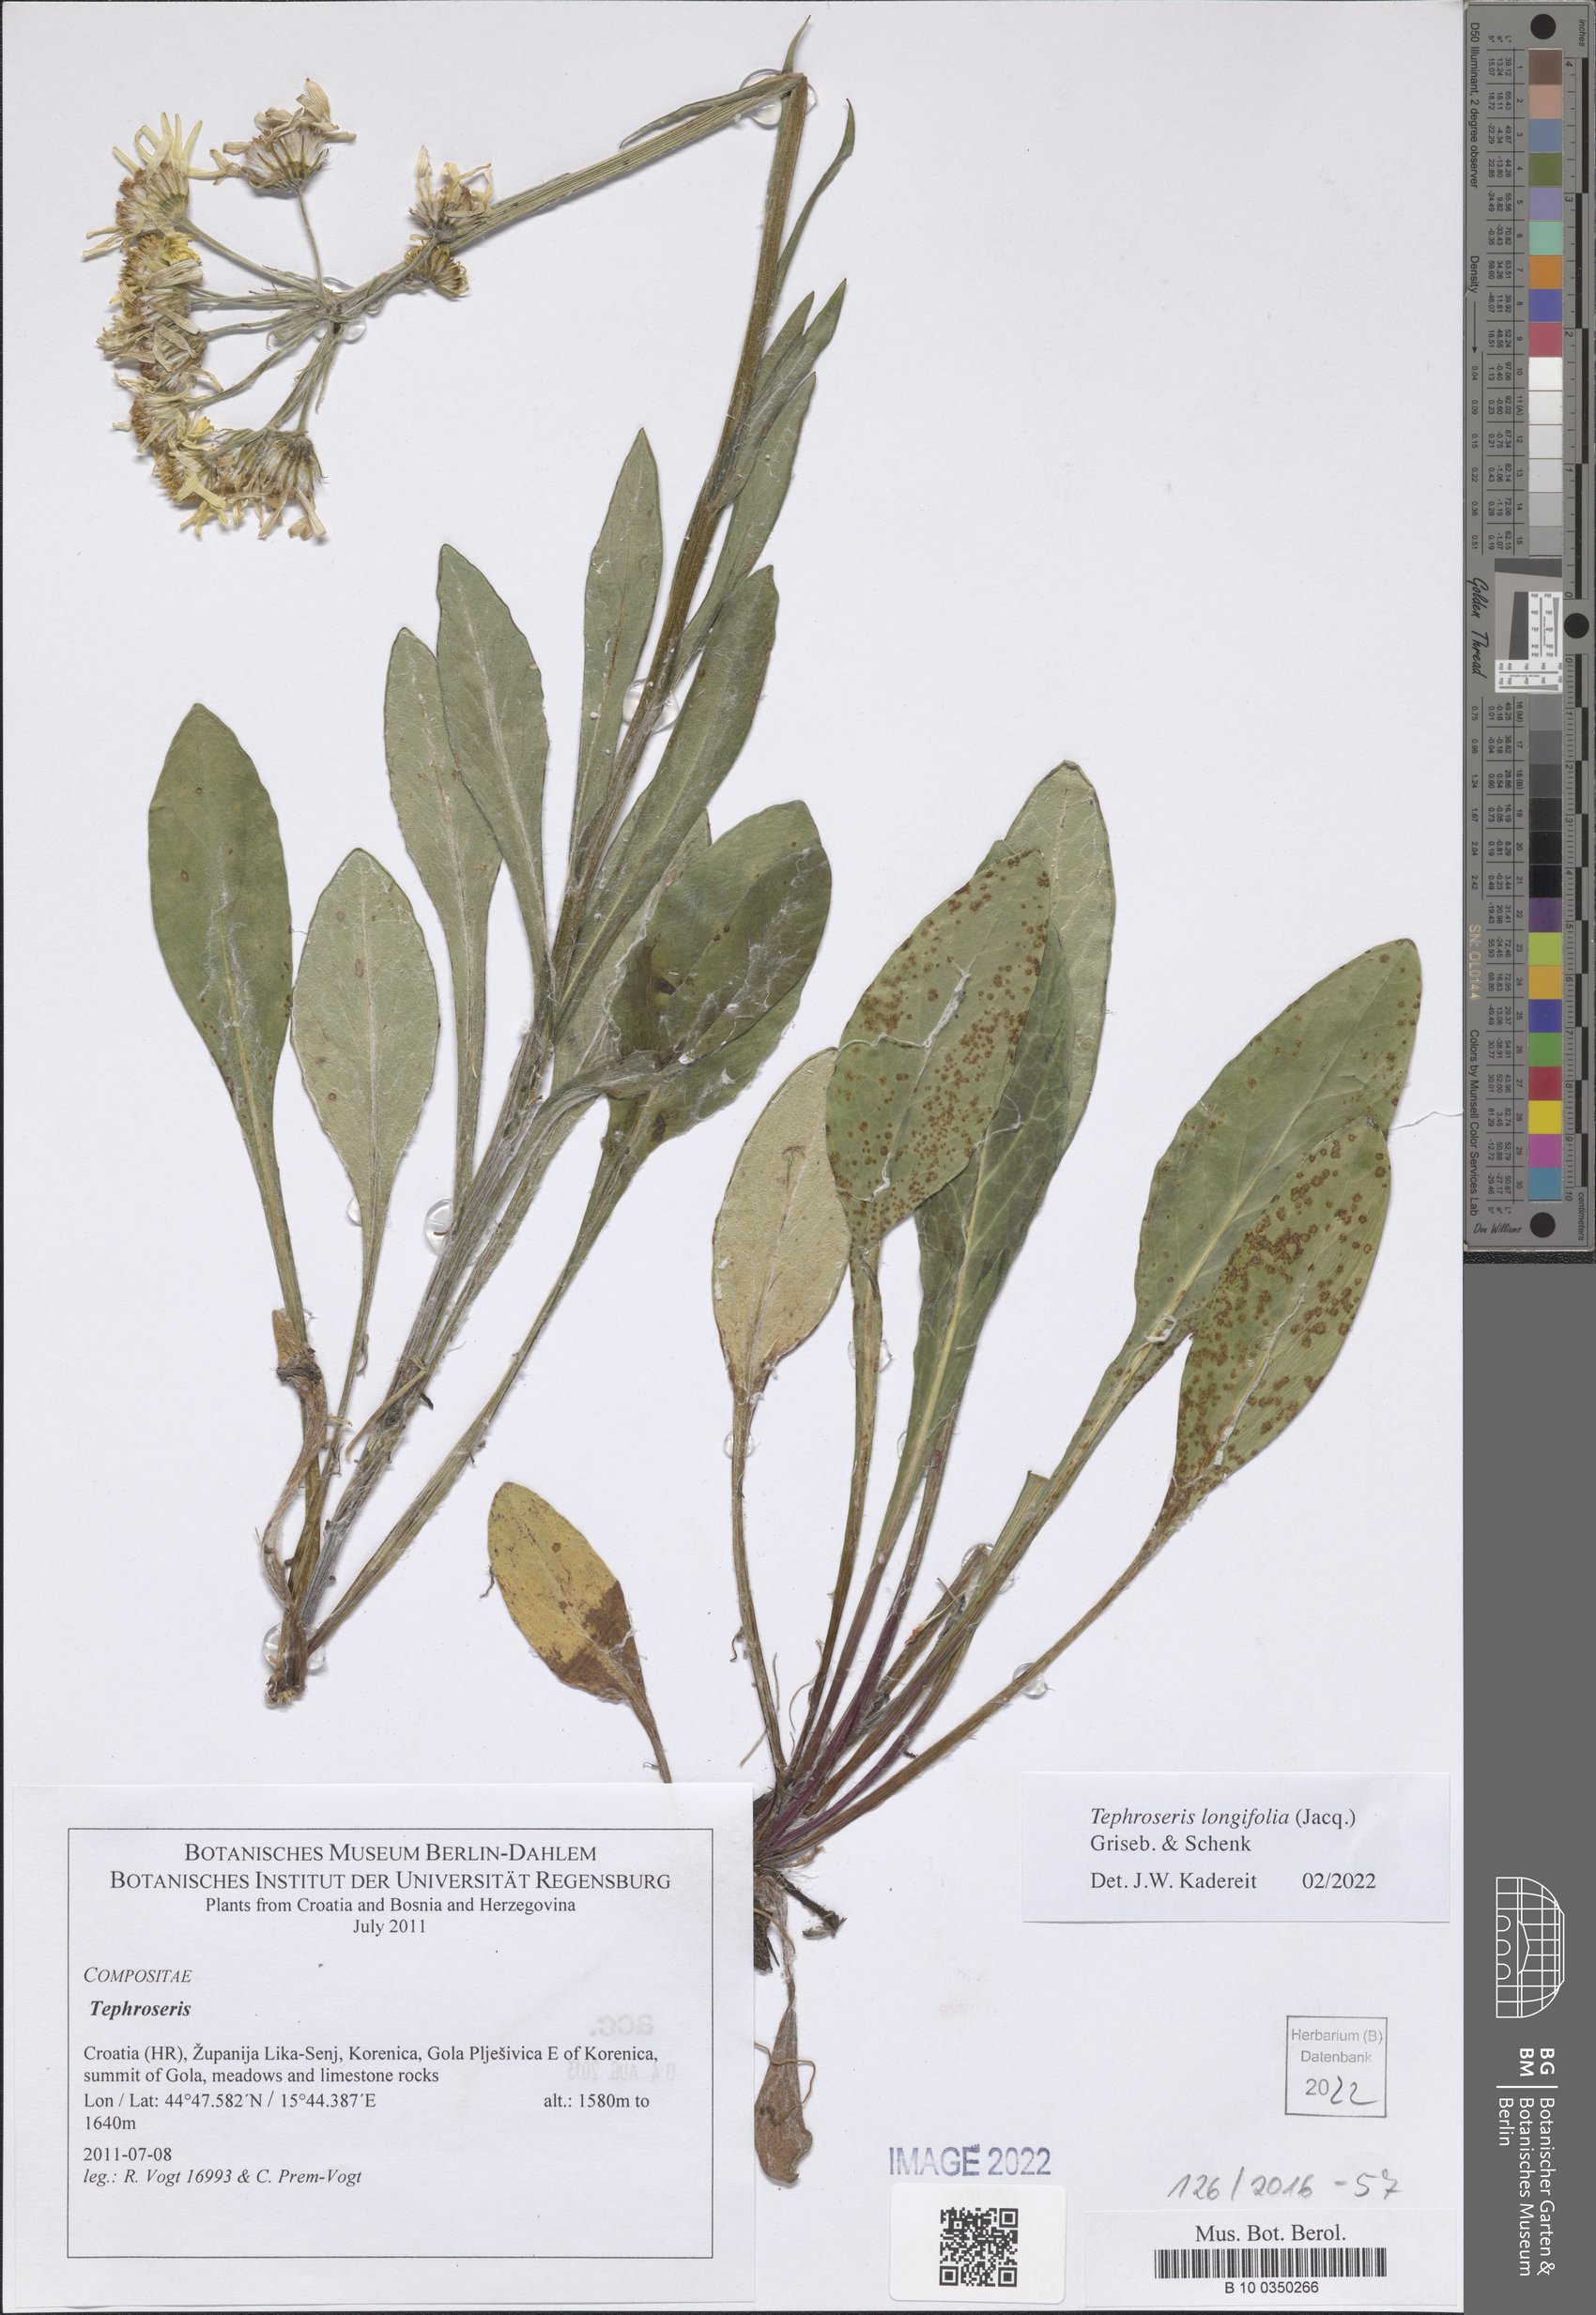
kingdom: Plantae
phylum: Tracheophyta
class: Magnoliopsida
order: Asterales
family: Asteraceae
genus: Tephroseris
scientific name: Tephroseris longifolia
